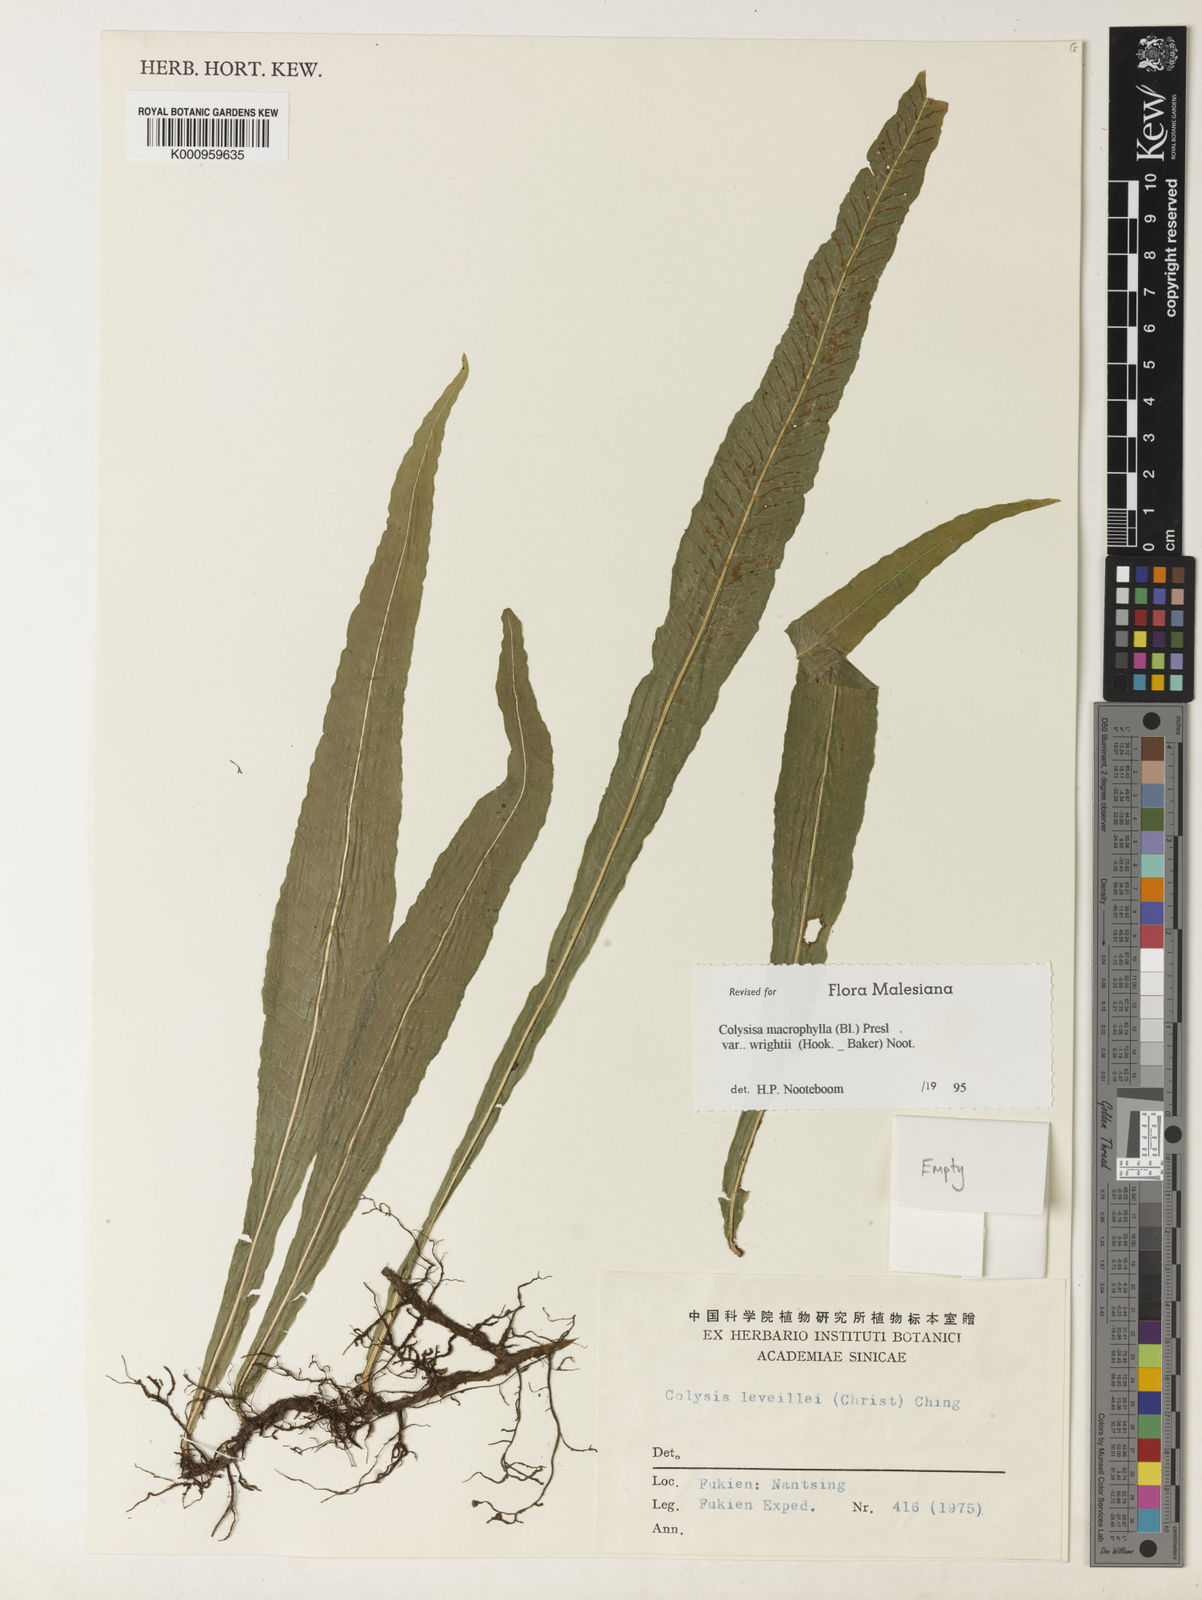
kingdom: Plantae
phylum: Tracheophyta
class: Polypodiopsida
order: Polypodiales
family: Polypodiaceae
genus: Leptochilus
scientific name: Leptochilus leveillei
